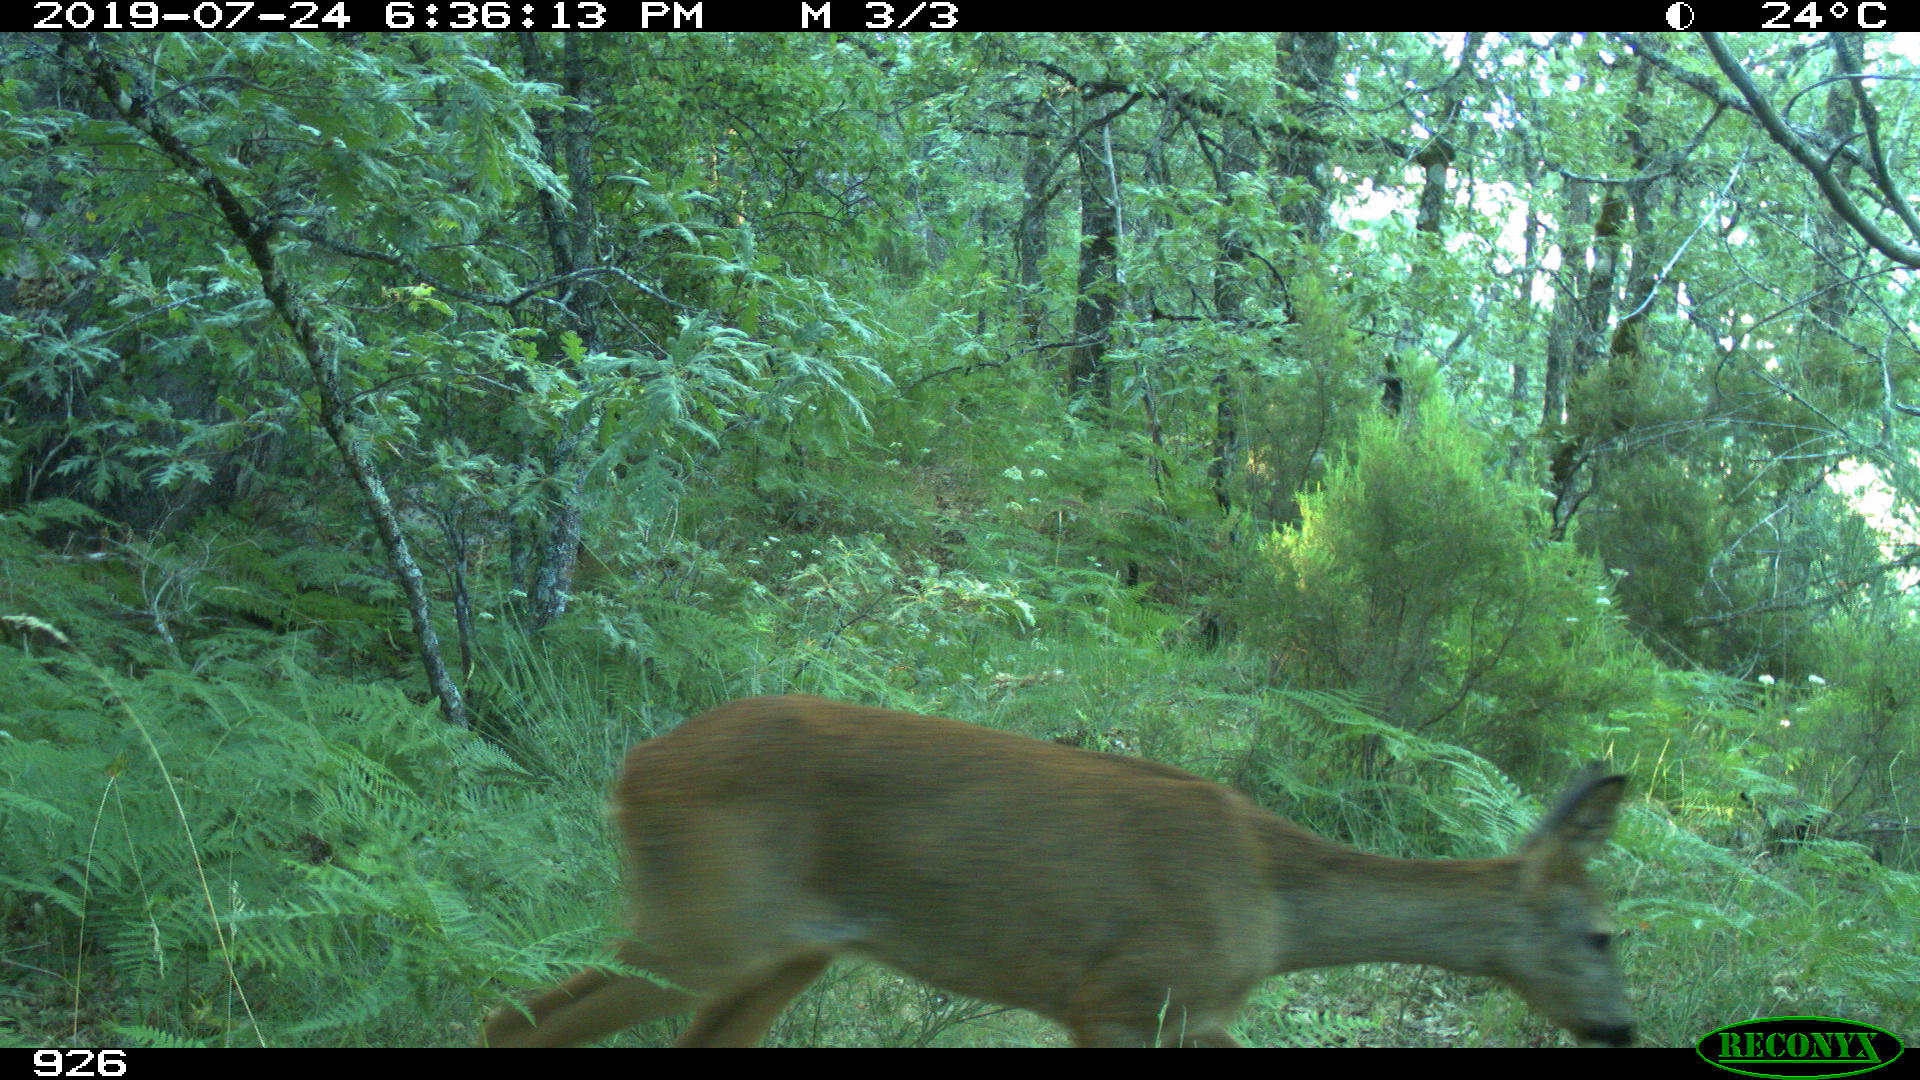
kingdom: Animalia
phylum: Chordata
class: Mammalia
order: Artiodactyla
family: Cervidae
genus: Capreolus
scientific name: Capreolus capreolus
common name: Western roe deer
